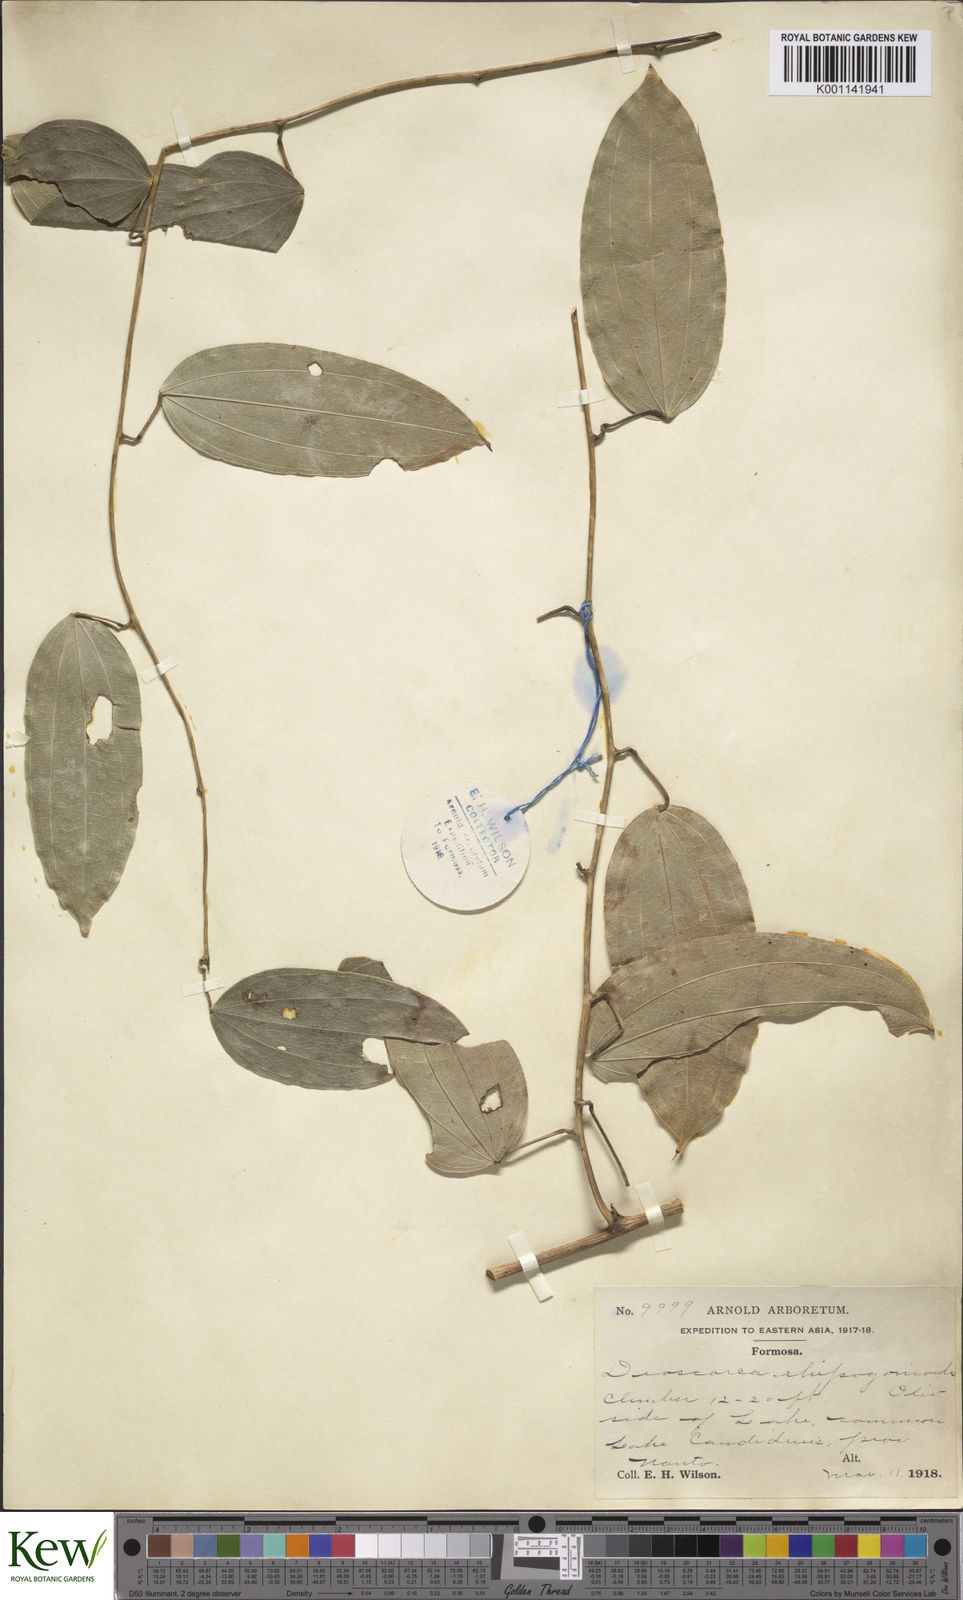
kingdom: Plantae
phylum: Tracheophyta
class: Liliopsida
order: Dioscoreales
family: Dioscoreaceae
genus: Dioscorea
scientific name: Dioscorea cirrhosa
